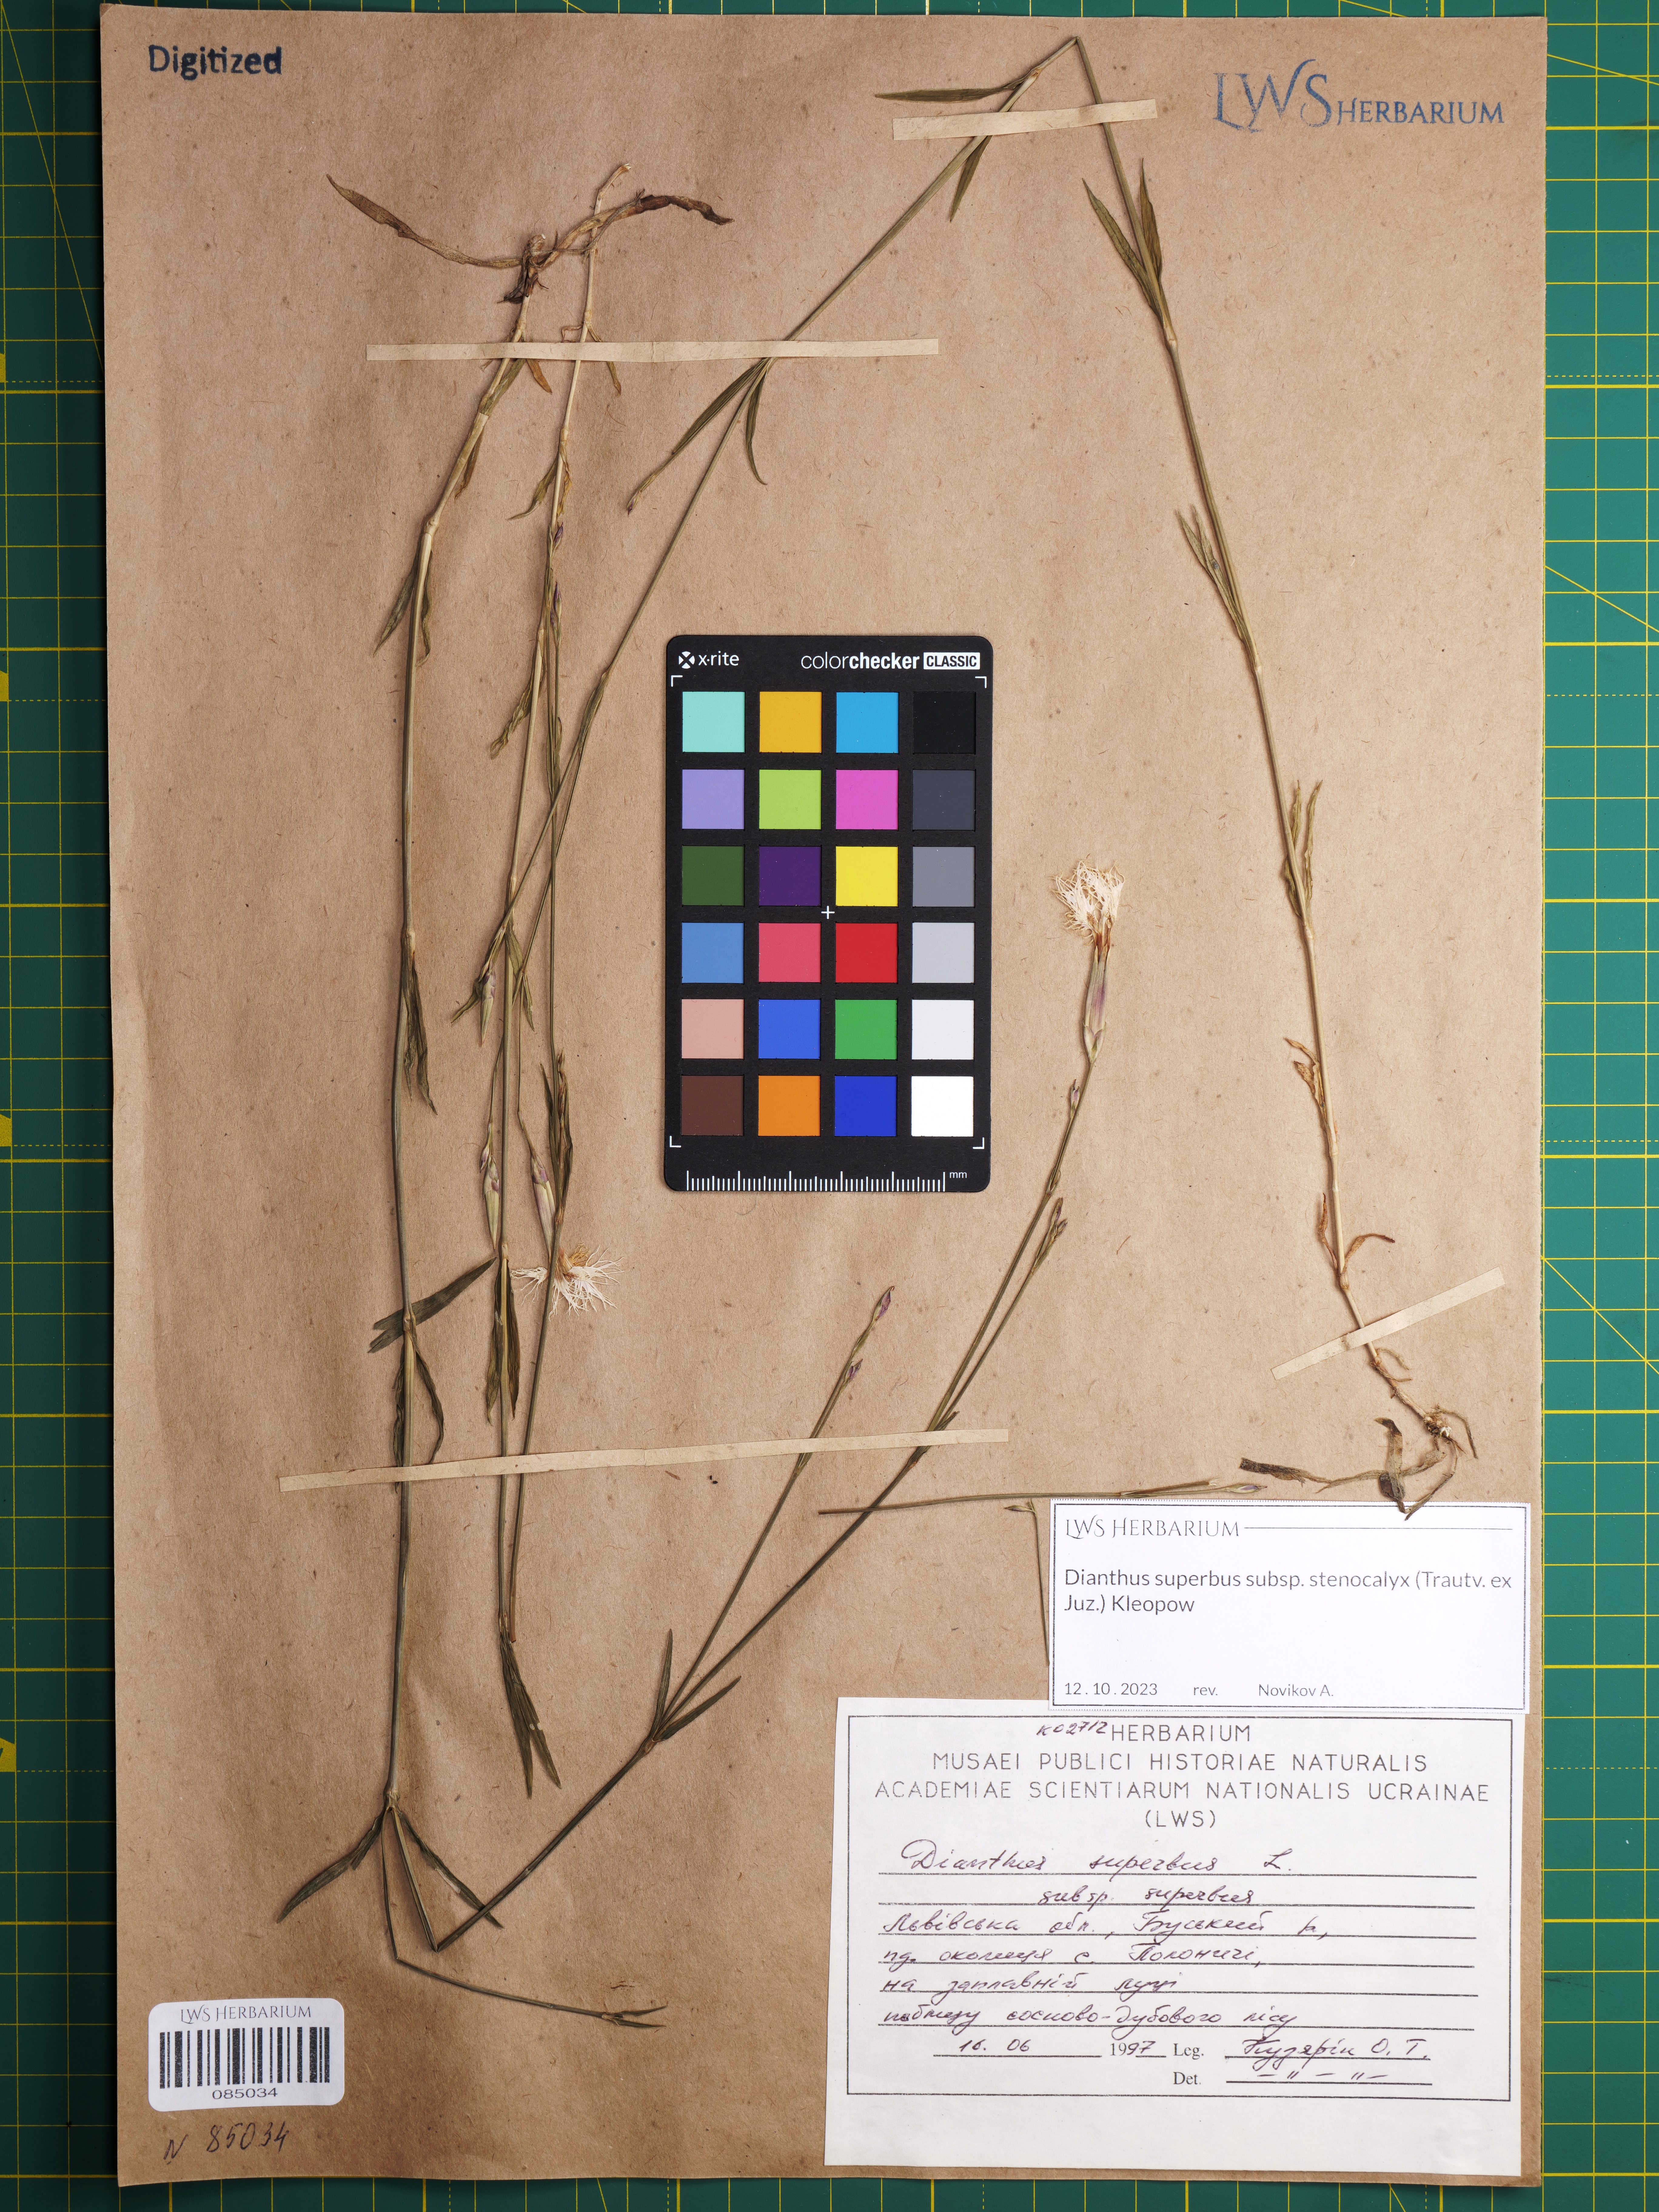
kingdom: Plantae
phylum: Tracheophyta
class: Magnoliopsida
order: Caryophyllales
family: Caryophyllaceae
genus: Dianthus
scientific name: Dianthus superbus
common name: Fringed pink
